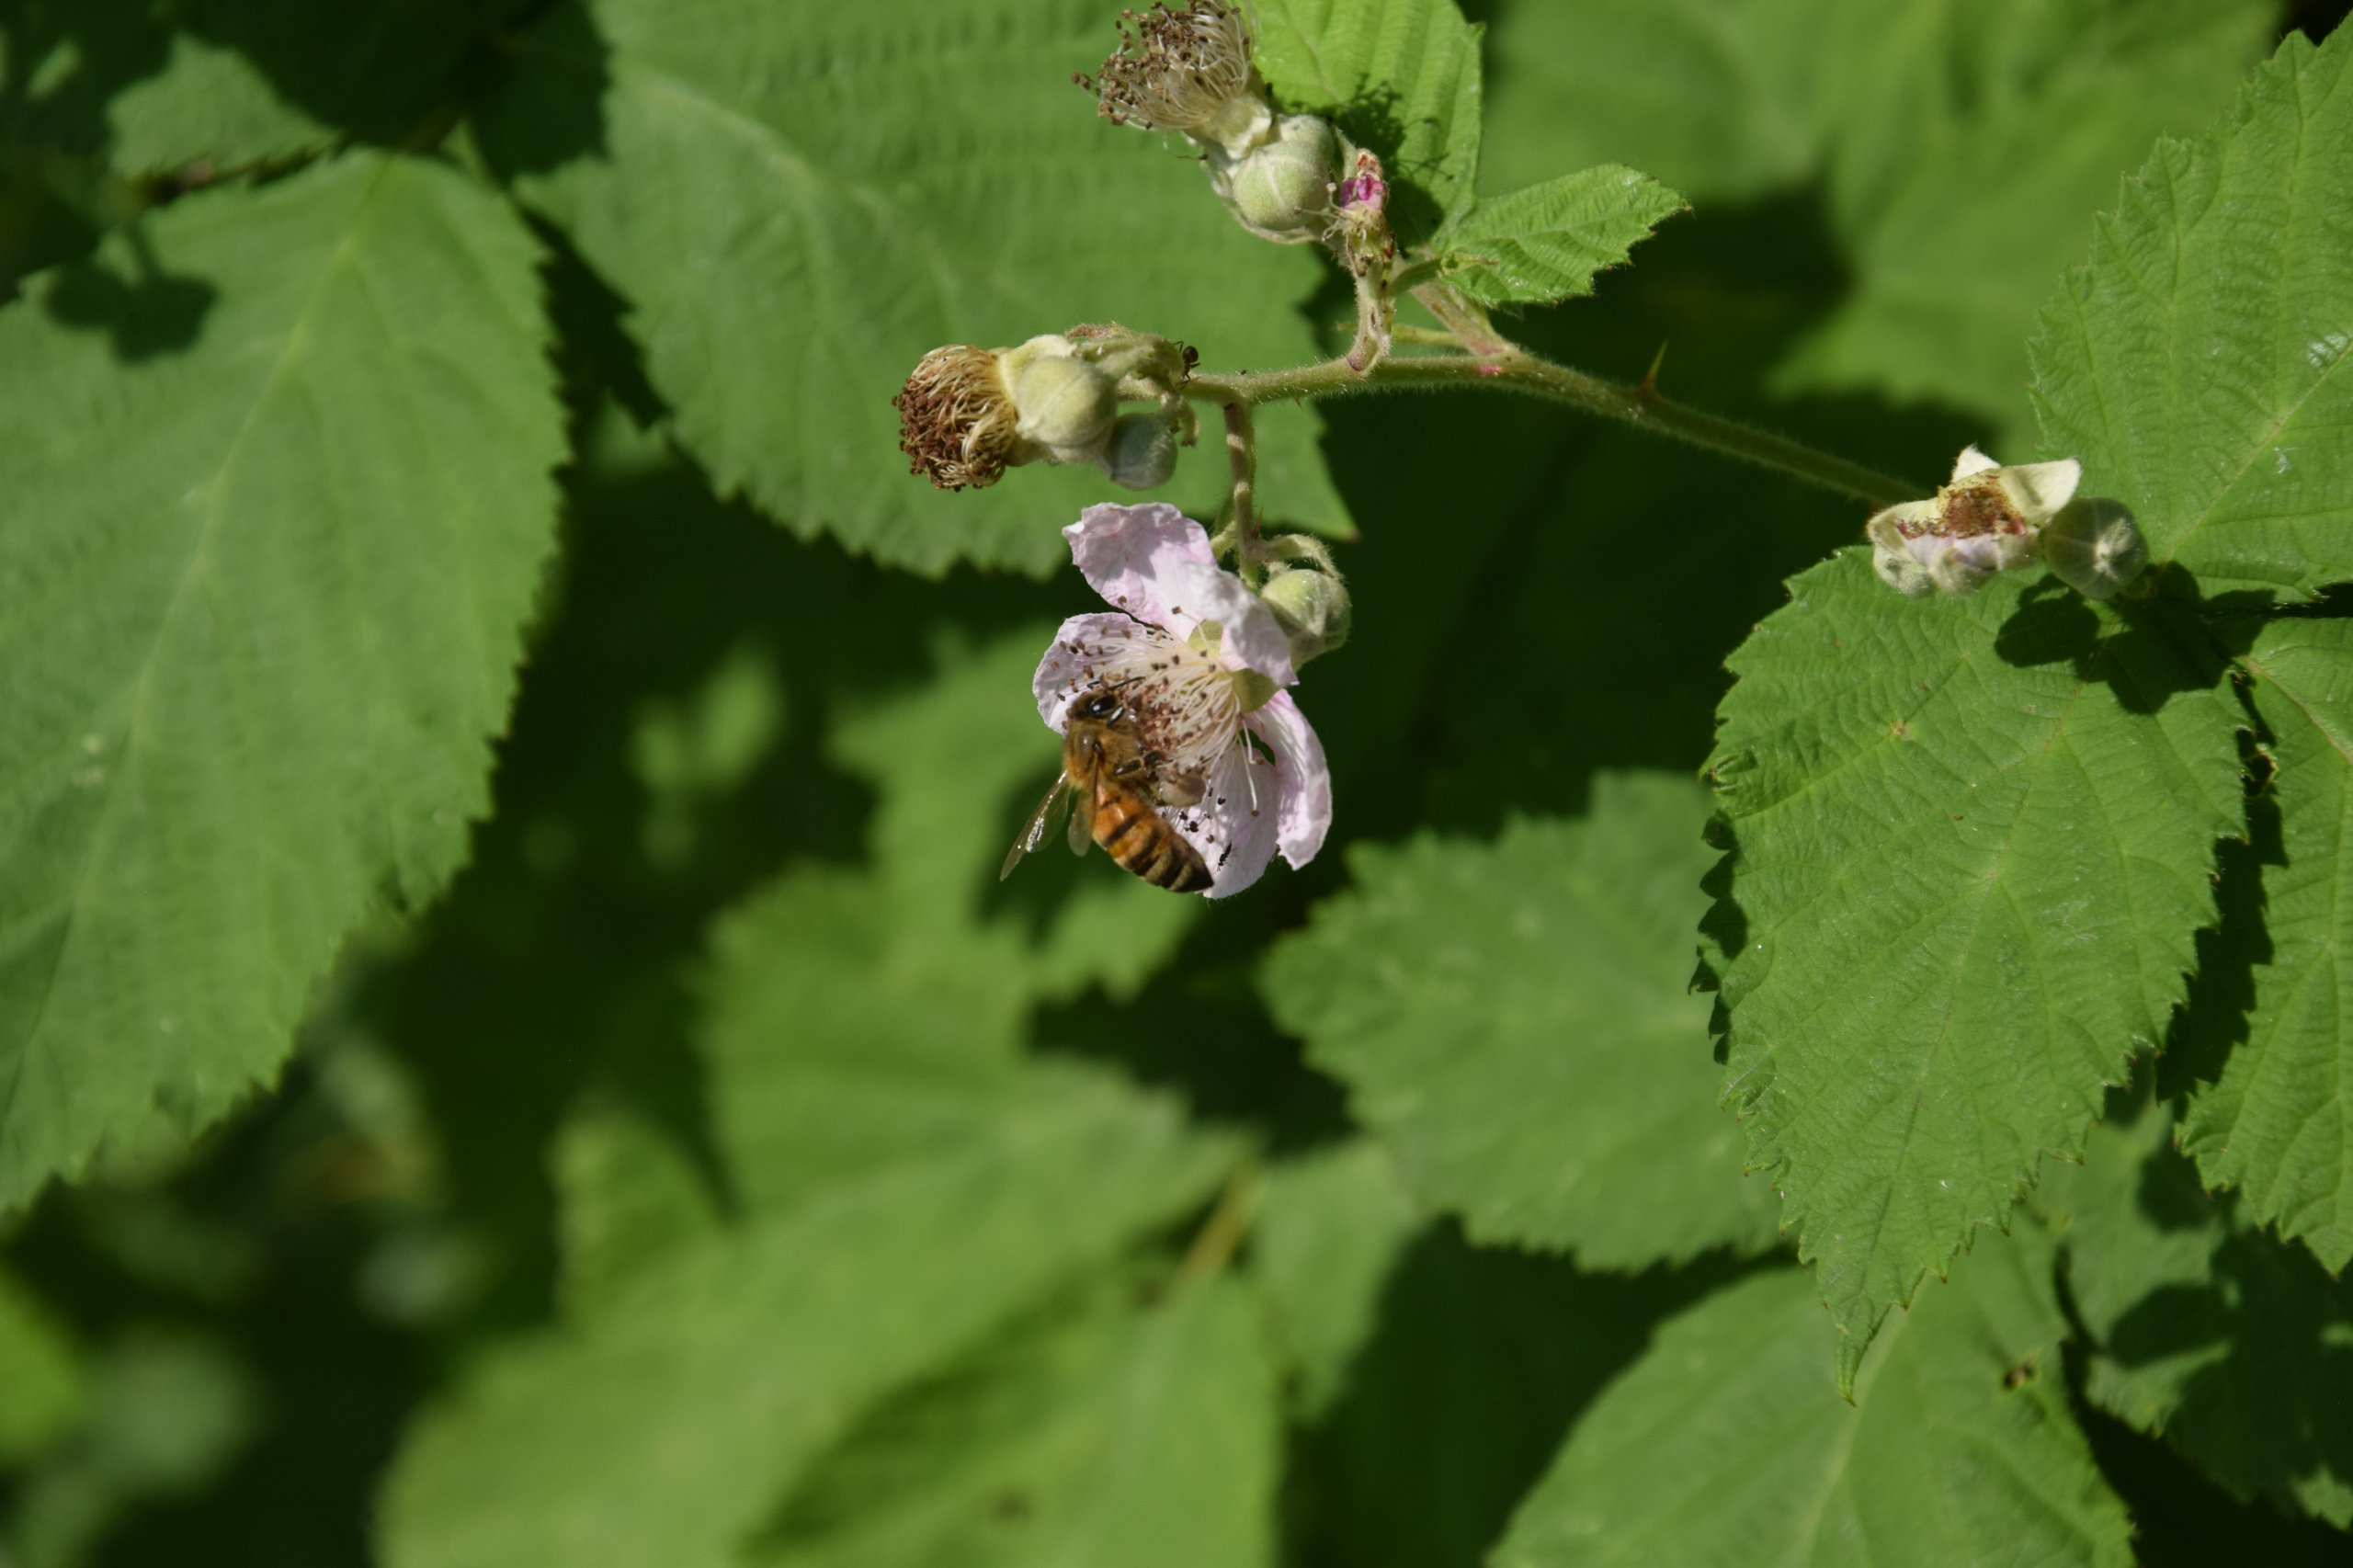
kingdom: Animalia
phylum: Arthropoda
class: Insecta
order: Hymenoptera
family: Apidae
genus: Apis
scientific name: Apis mellifera
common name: Honningbi
